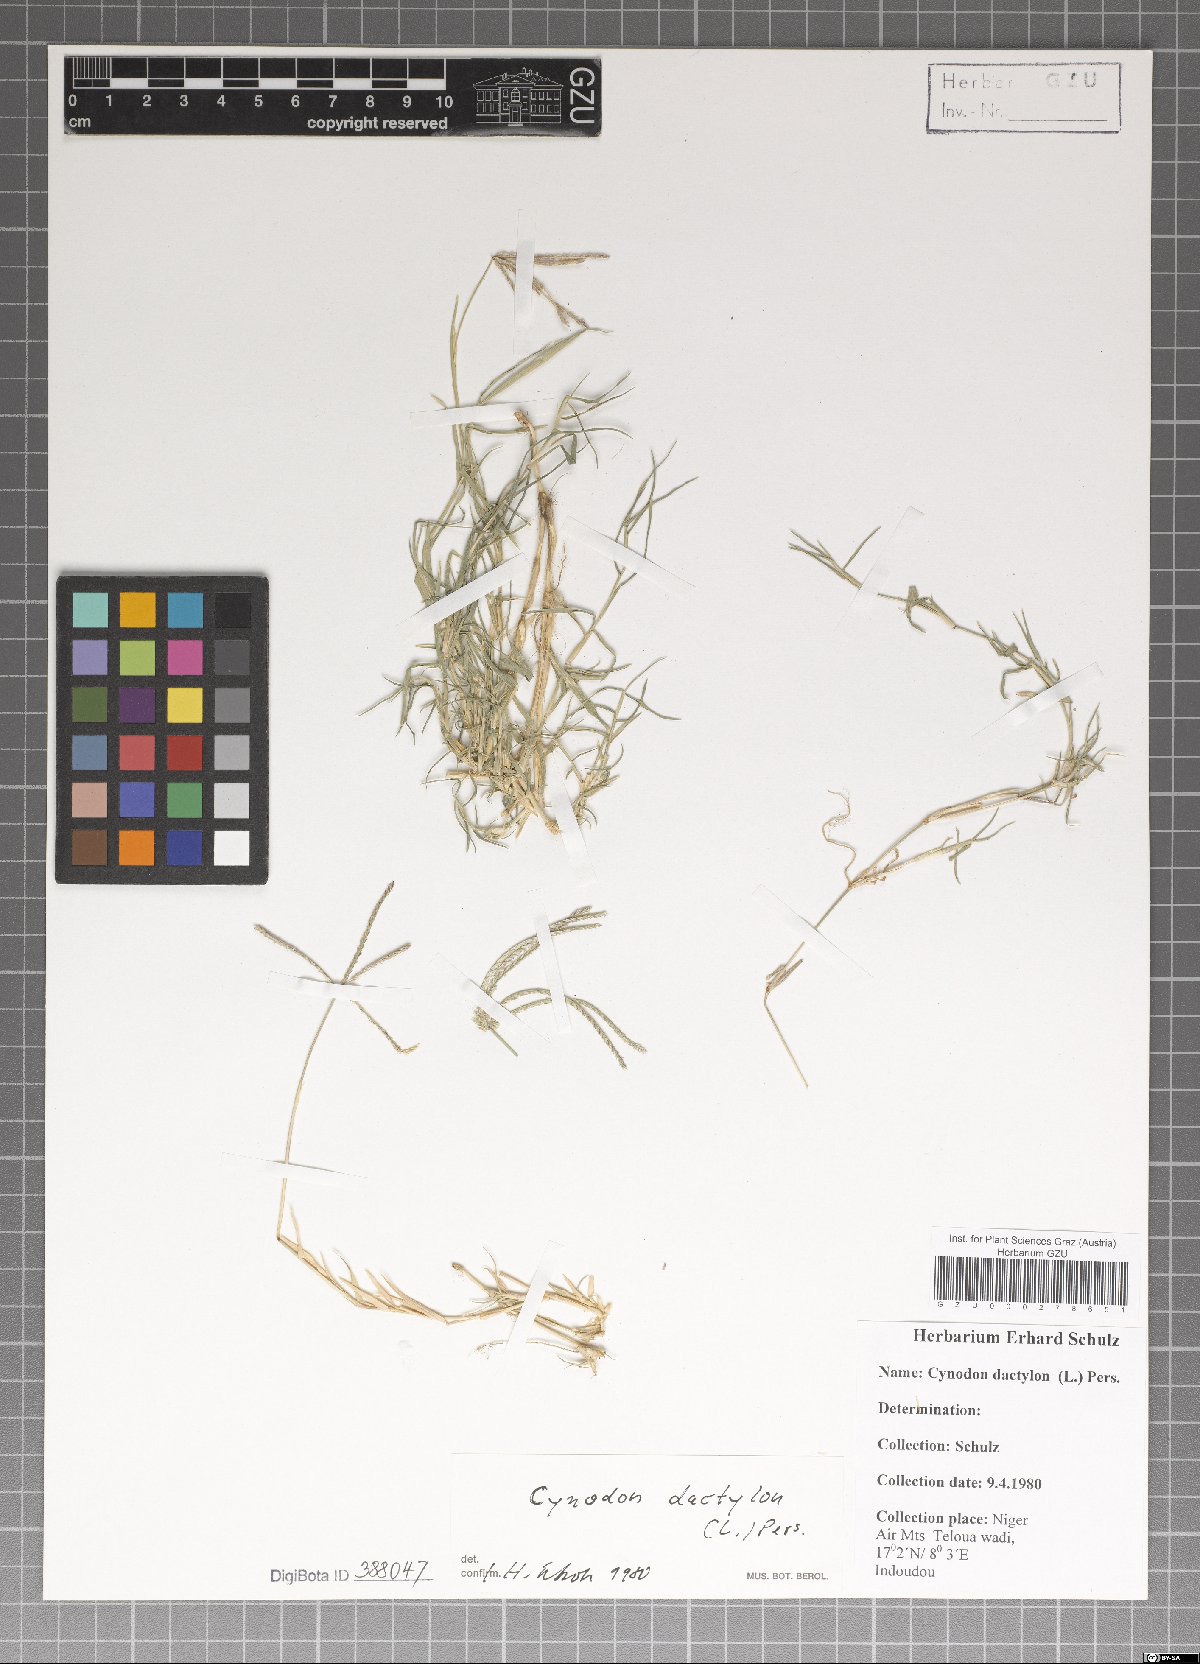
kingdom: Plantae
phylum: Tracheophyta
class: Liliopsida
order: Poales
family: Poaceae
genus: Cynodon
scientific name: Cynodon dactylon
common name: Bermuda grass
